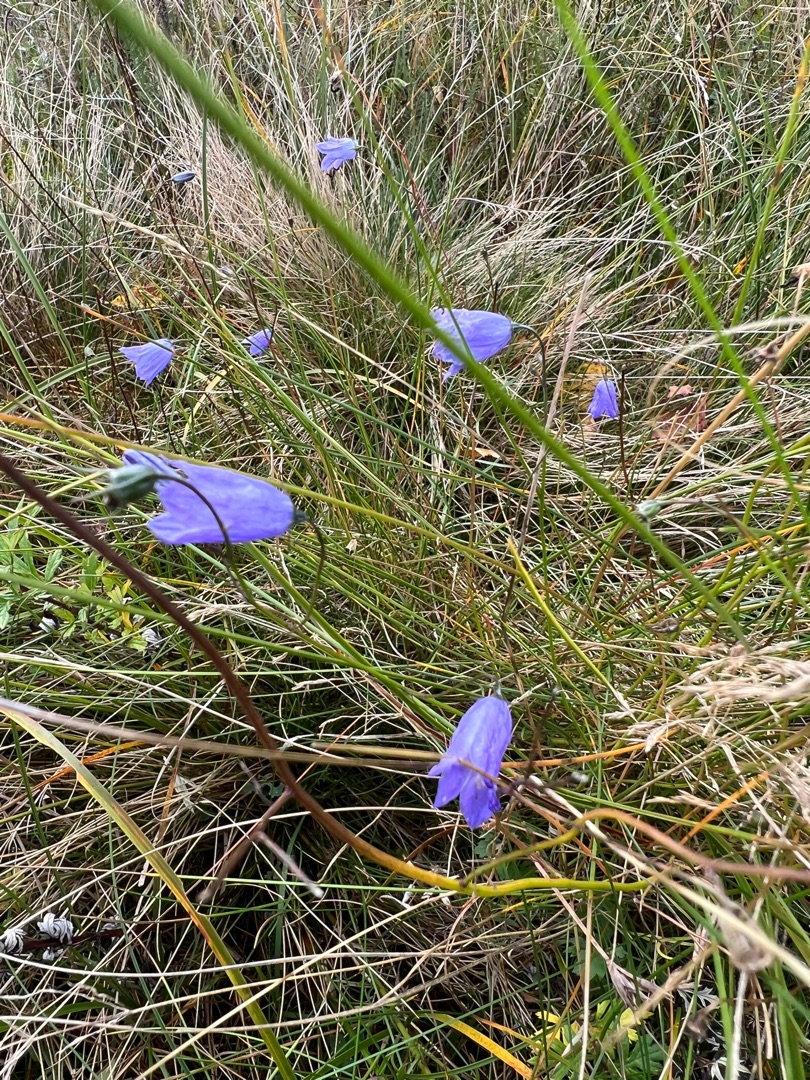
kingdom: Plantae
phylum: Tracheophyta
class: Magnoliopsida
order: Asterales
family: Campanulaceae
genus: Campanula
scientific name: Campanula rotundifolia
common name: Liden klokke
